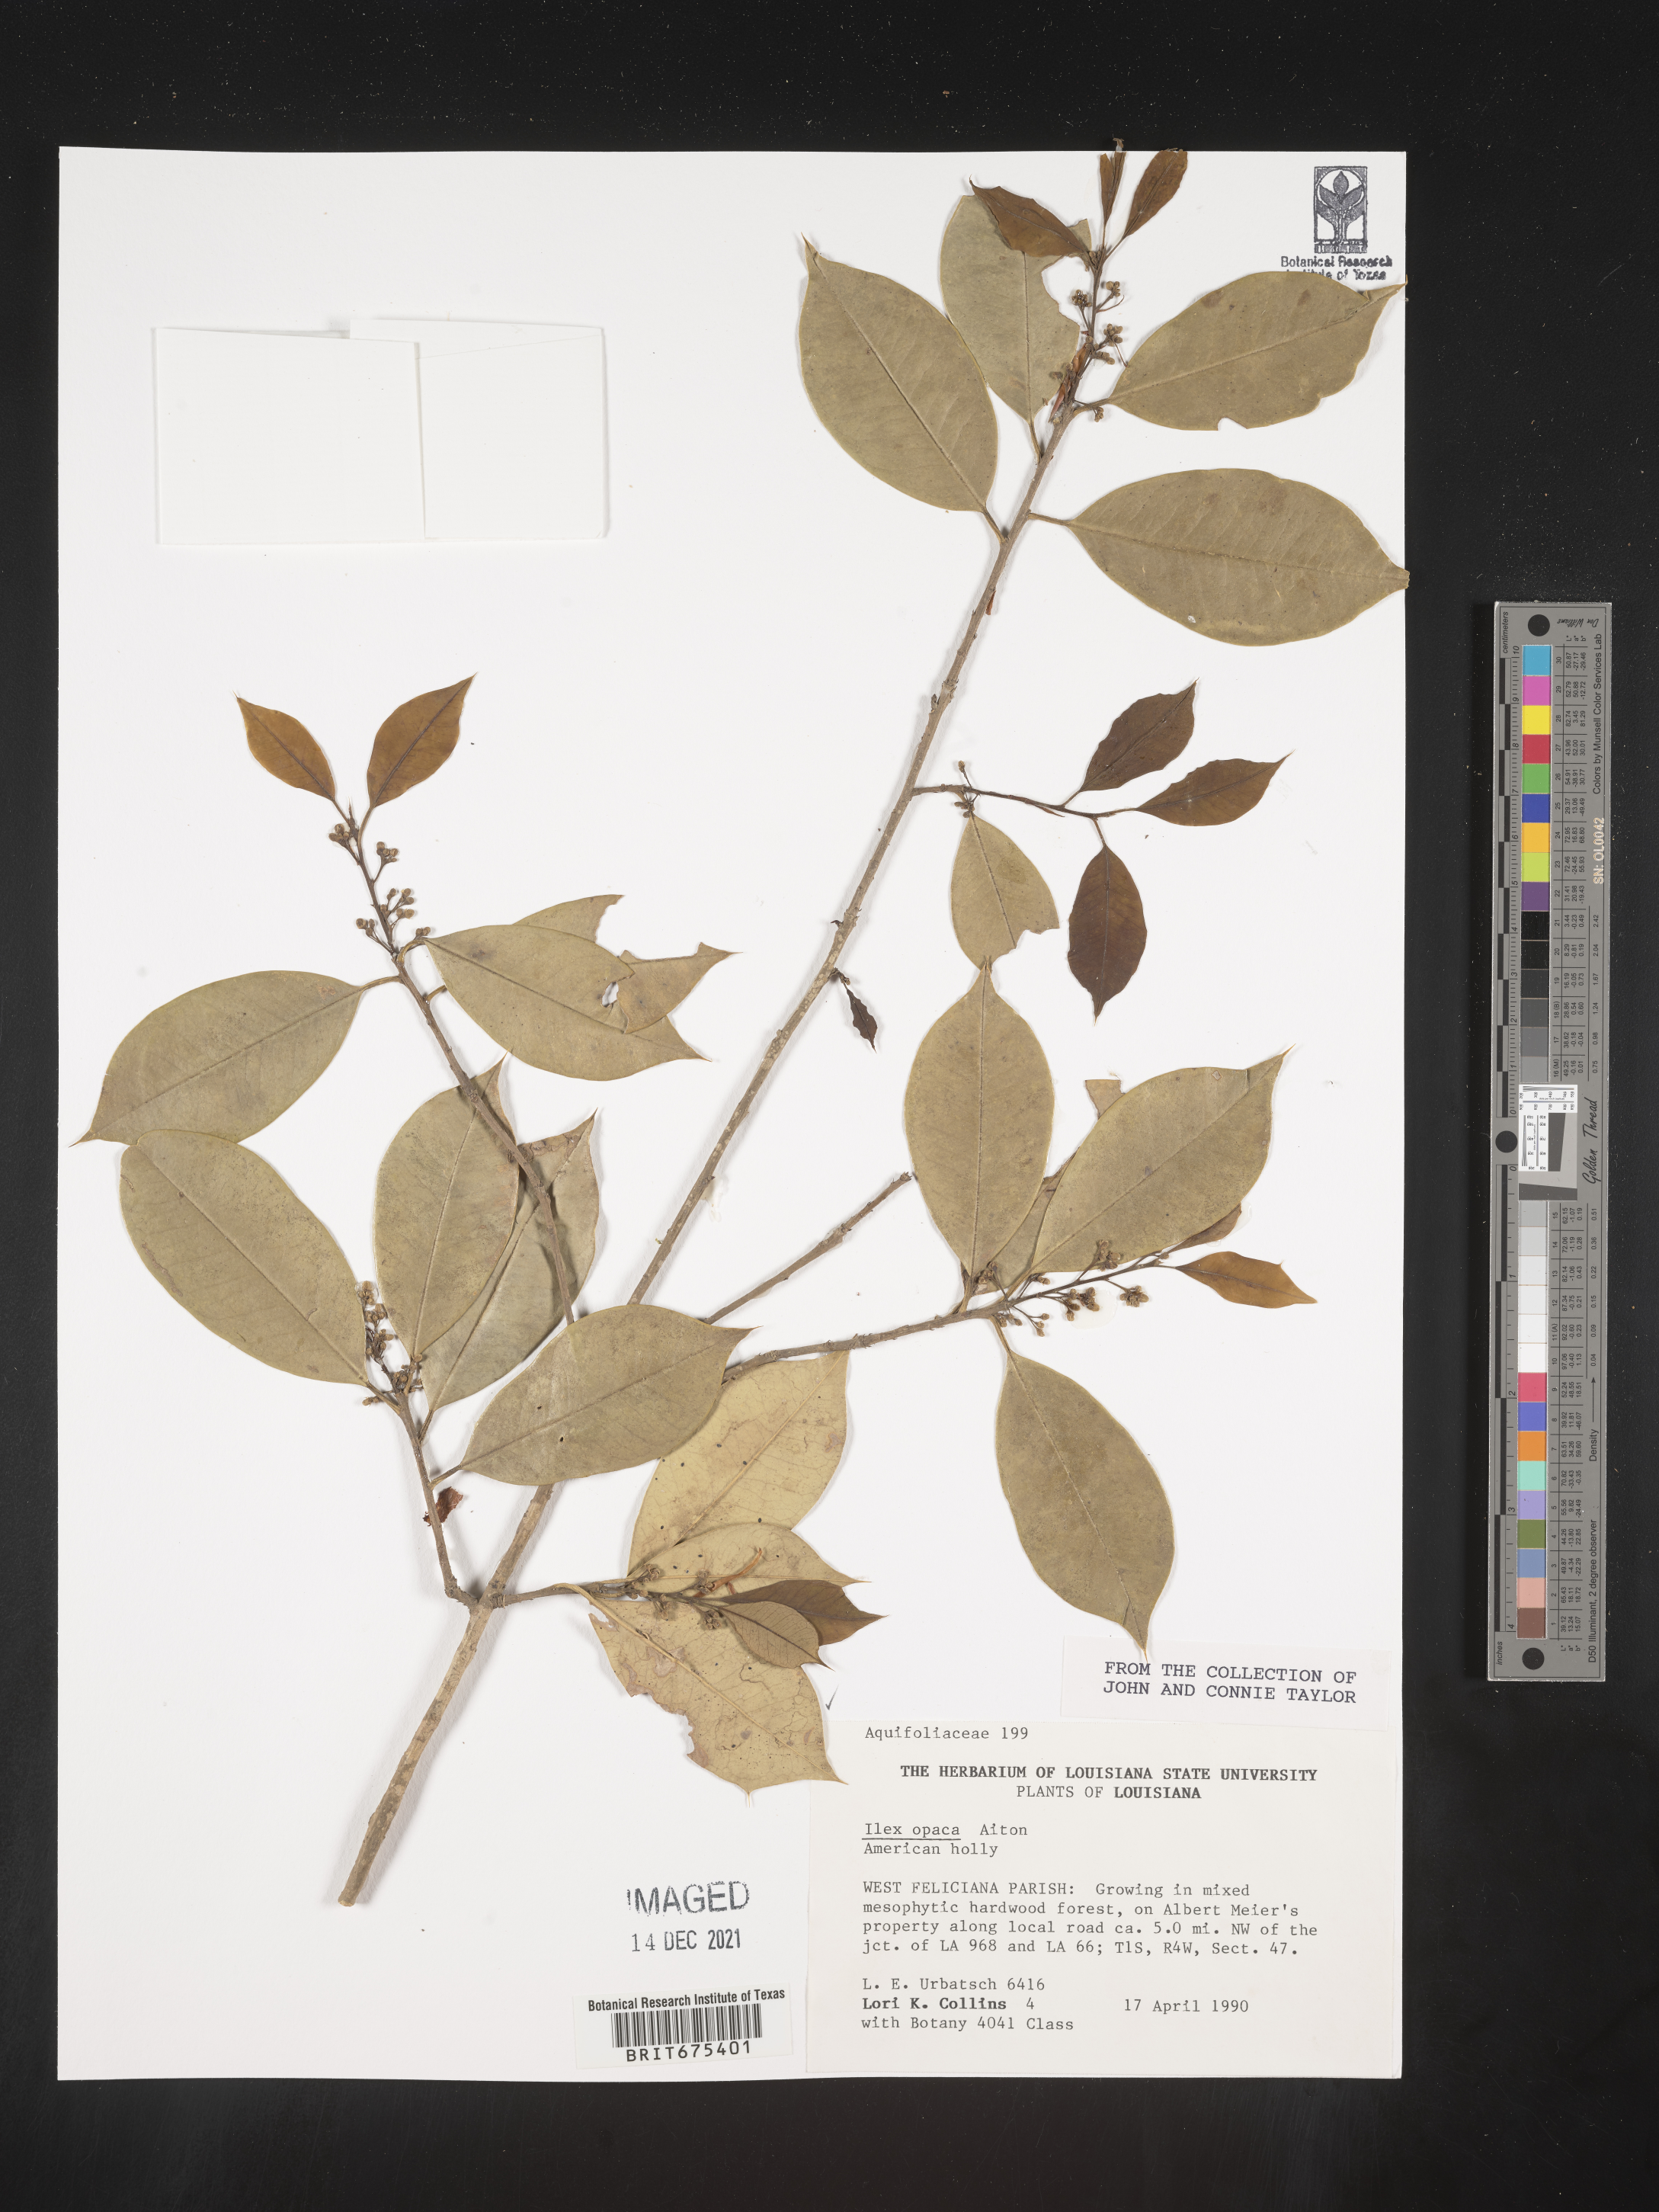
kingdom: Plantae
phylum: Tracheophyta
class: Magnoliopsida
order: Aquifoliales
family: Aquifoliaceae
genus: Ilex
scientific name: Ilex opaca
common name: American holly
